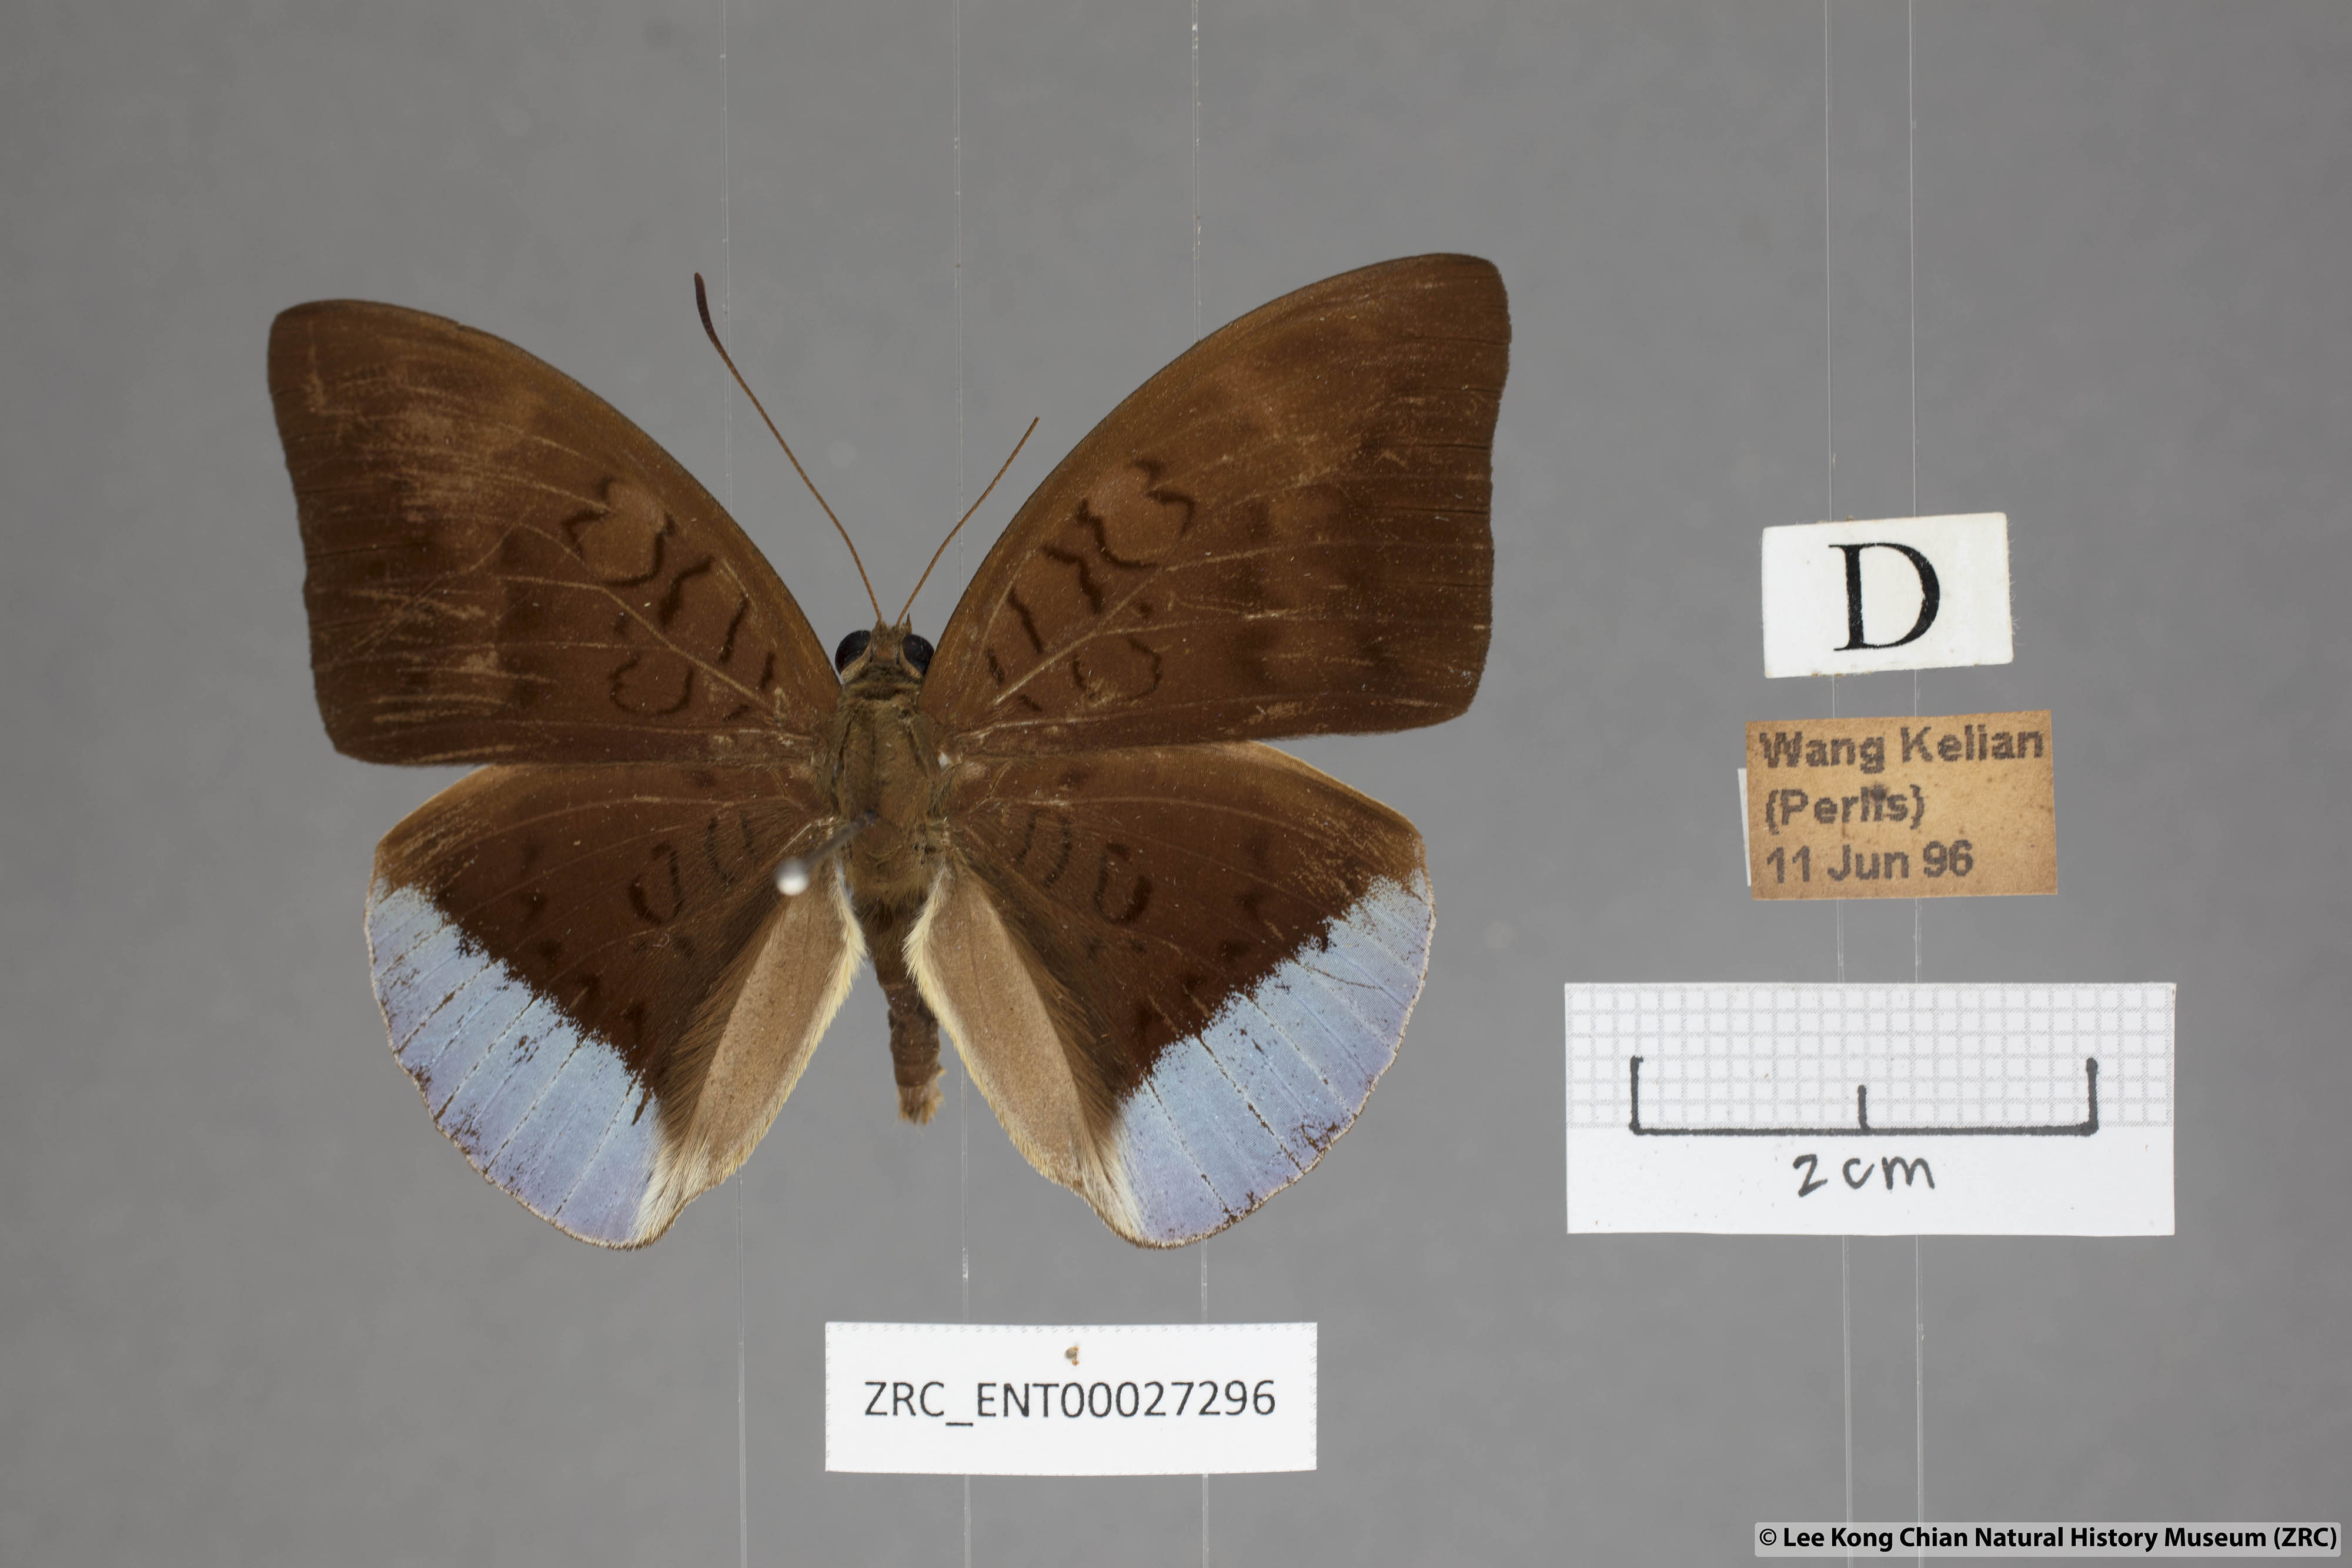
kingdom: Animalia
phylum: Arthropoda
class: Insecta
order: Lepidoptera
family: Nymphalidae
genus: Tanaecia
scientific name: Tanaecia julii
